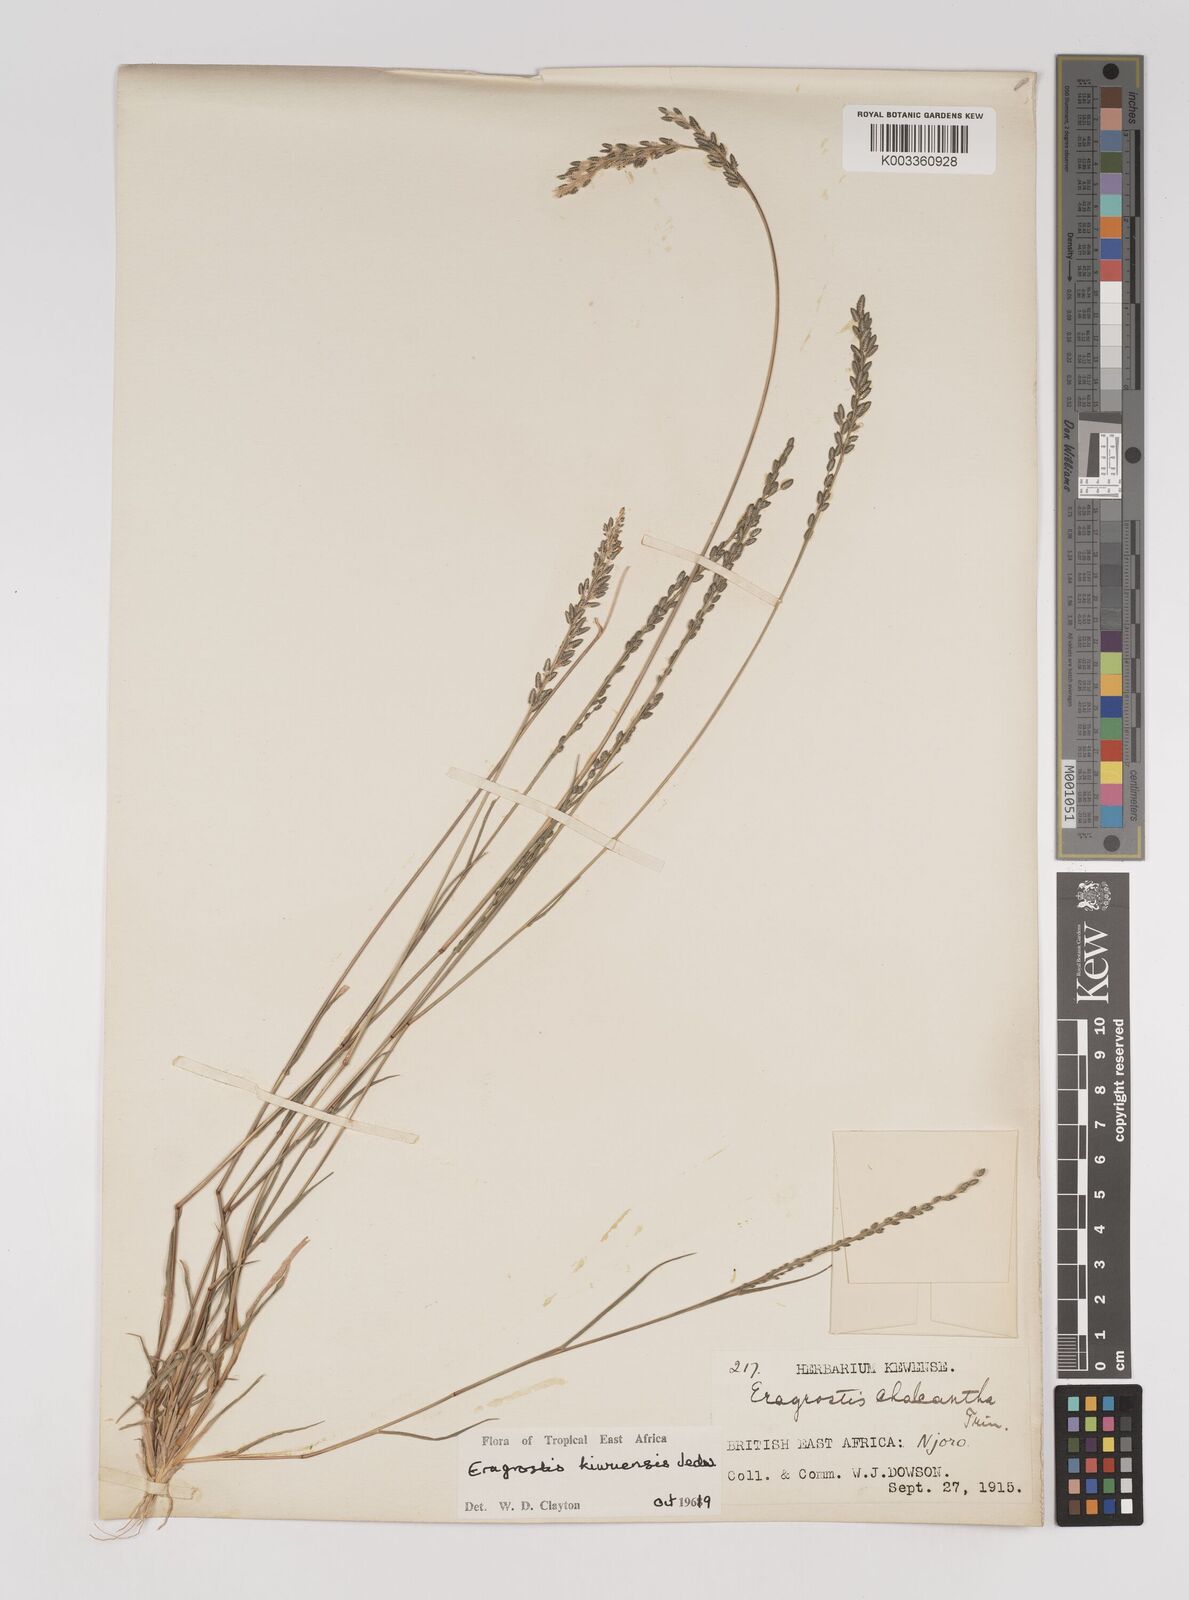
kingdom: Plantae
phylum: Tracheophyta
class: Liliopsida
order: Poales
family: Poaceae
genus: Eragrostis
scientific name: Eragrostis schweinfurthii
